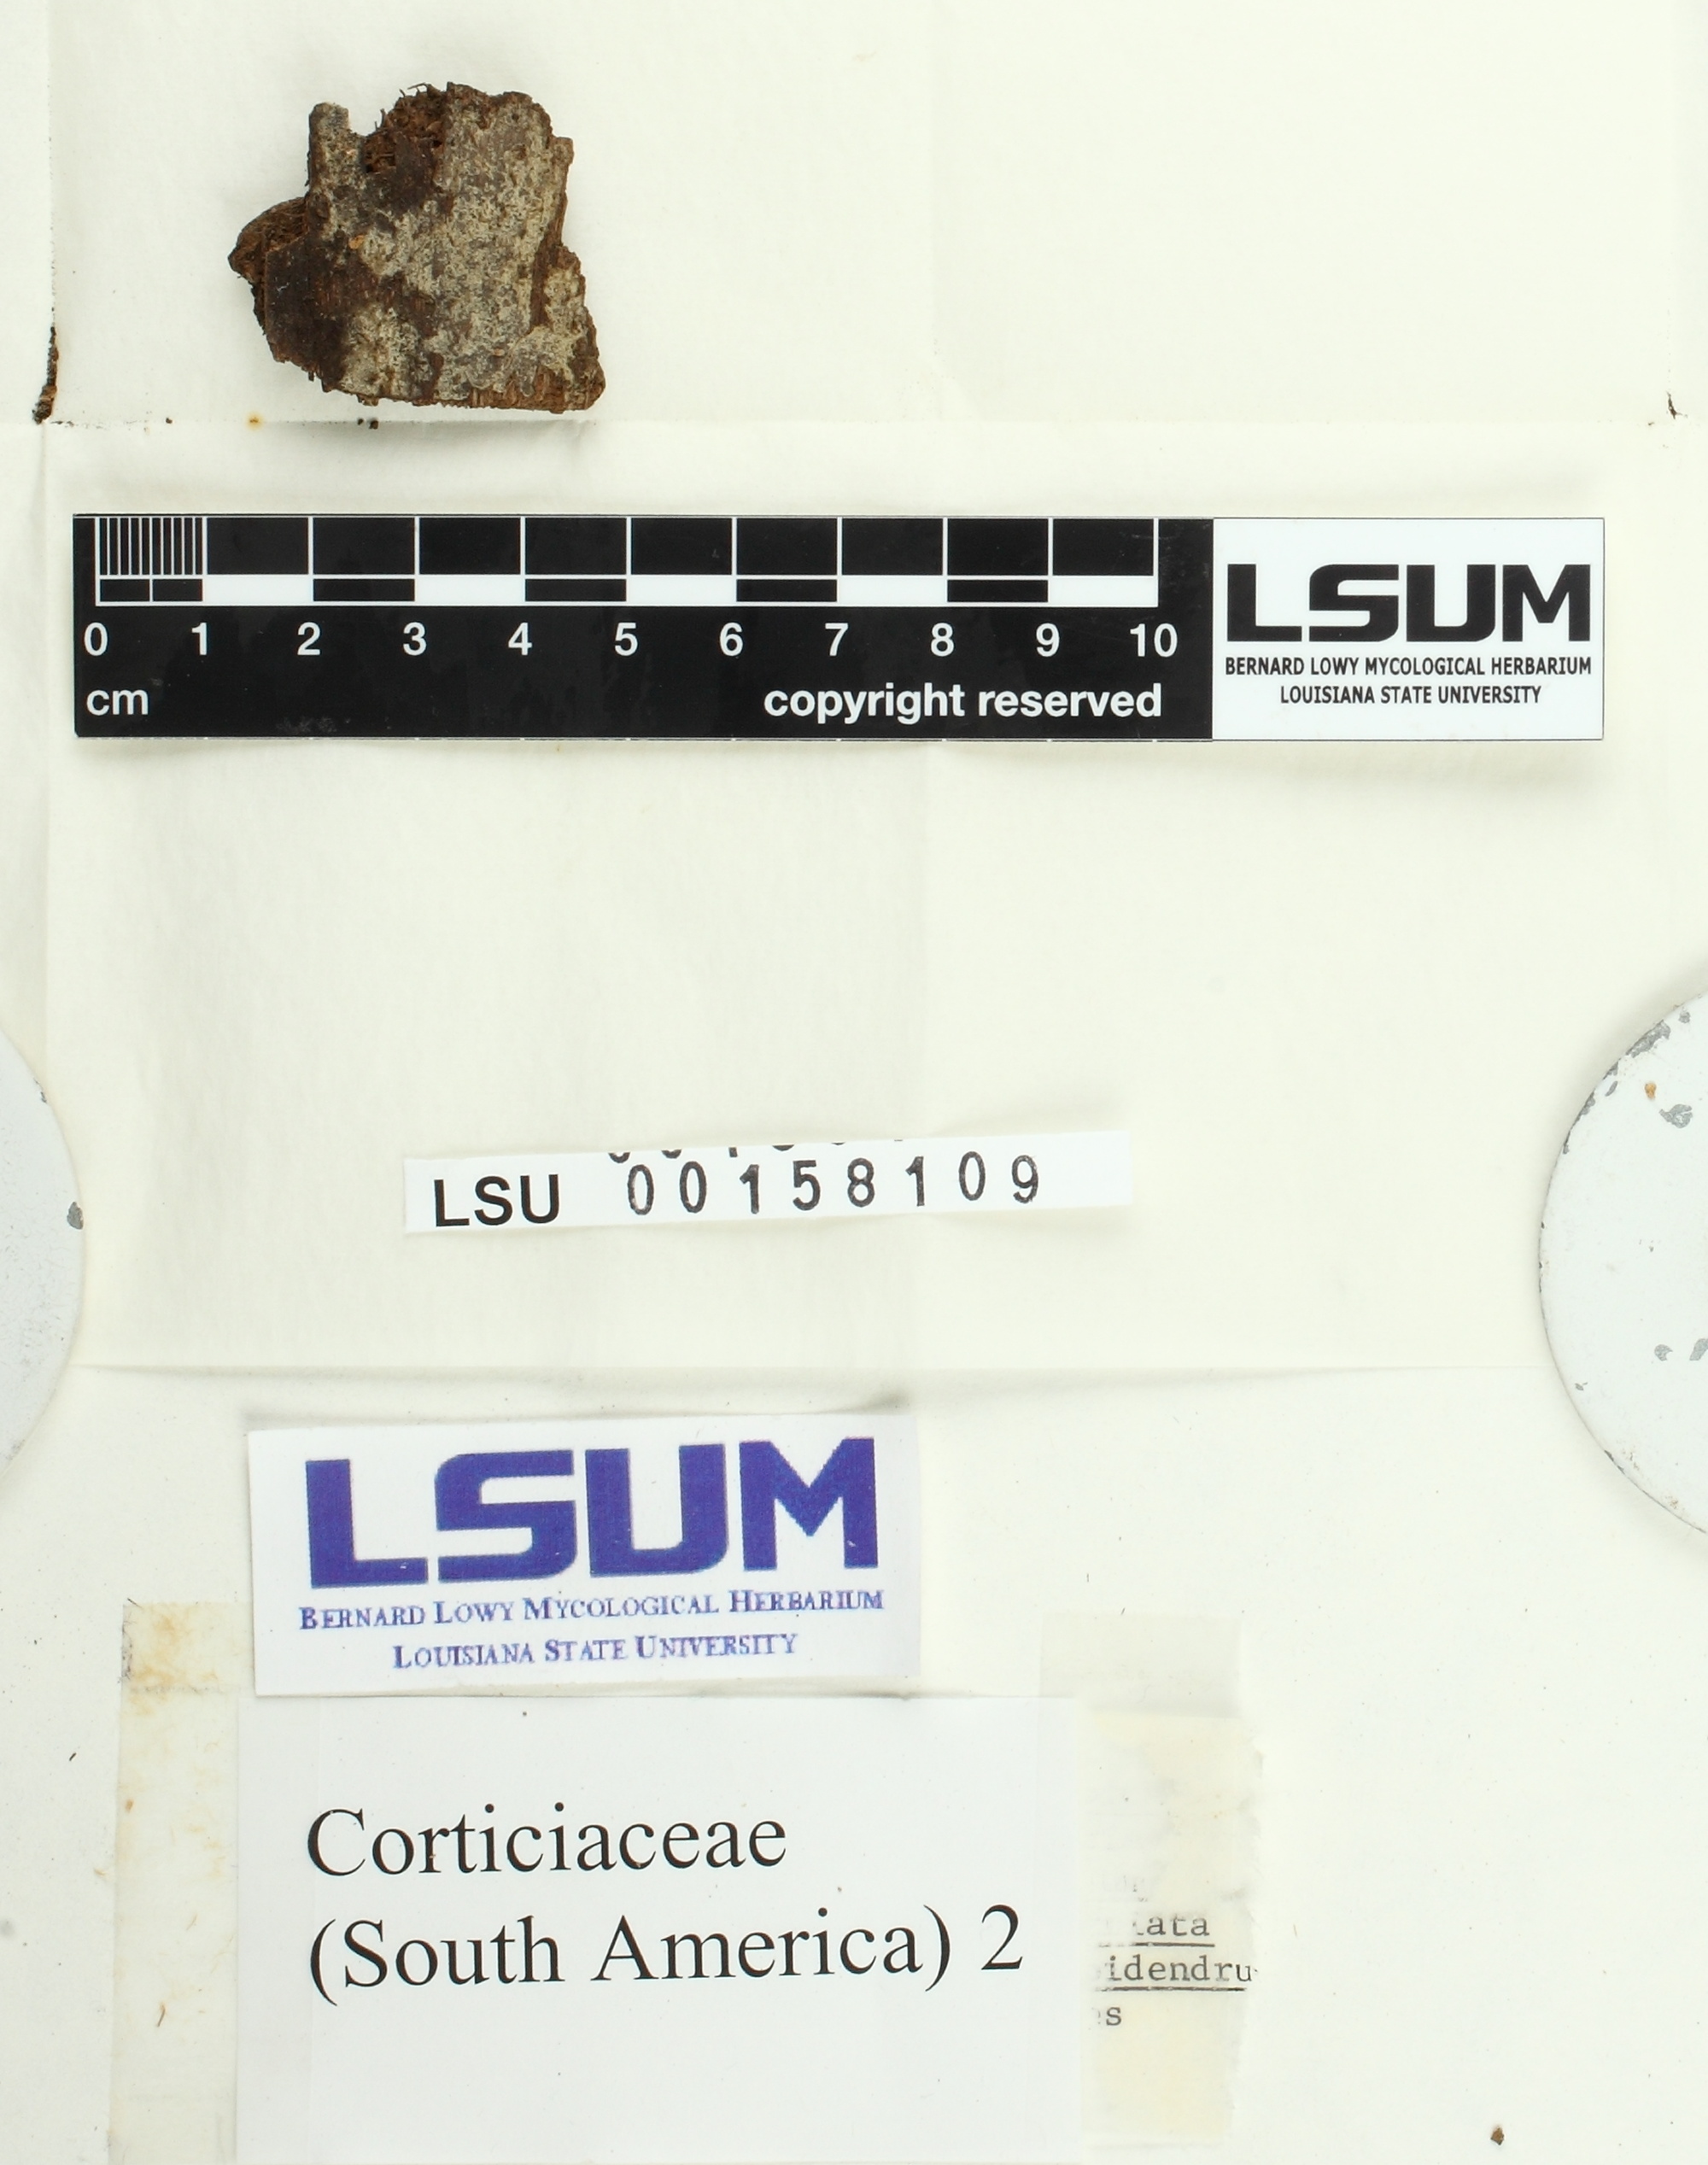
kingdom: Fungi
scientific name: Fungi
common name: Fungi
